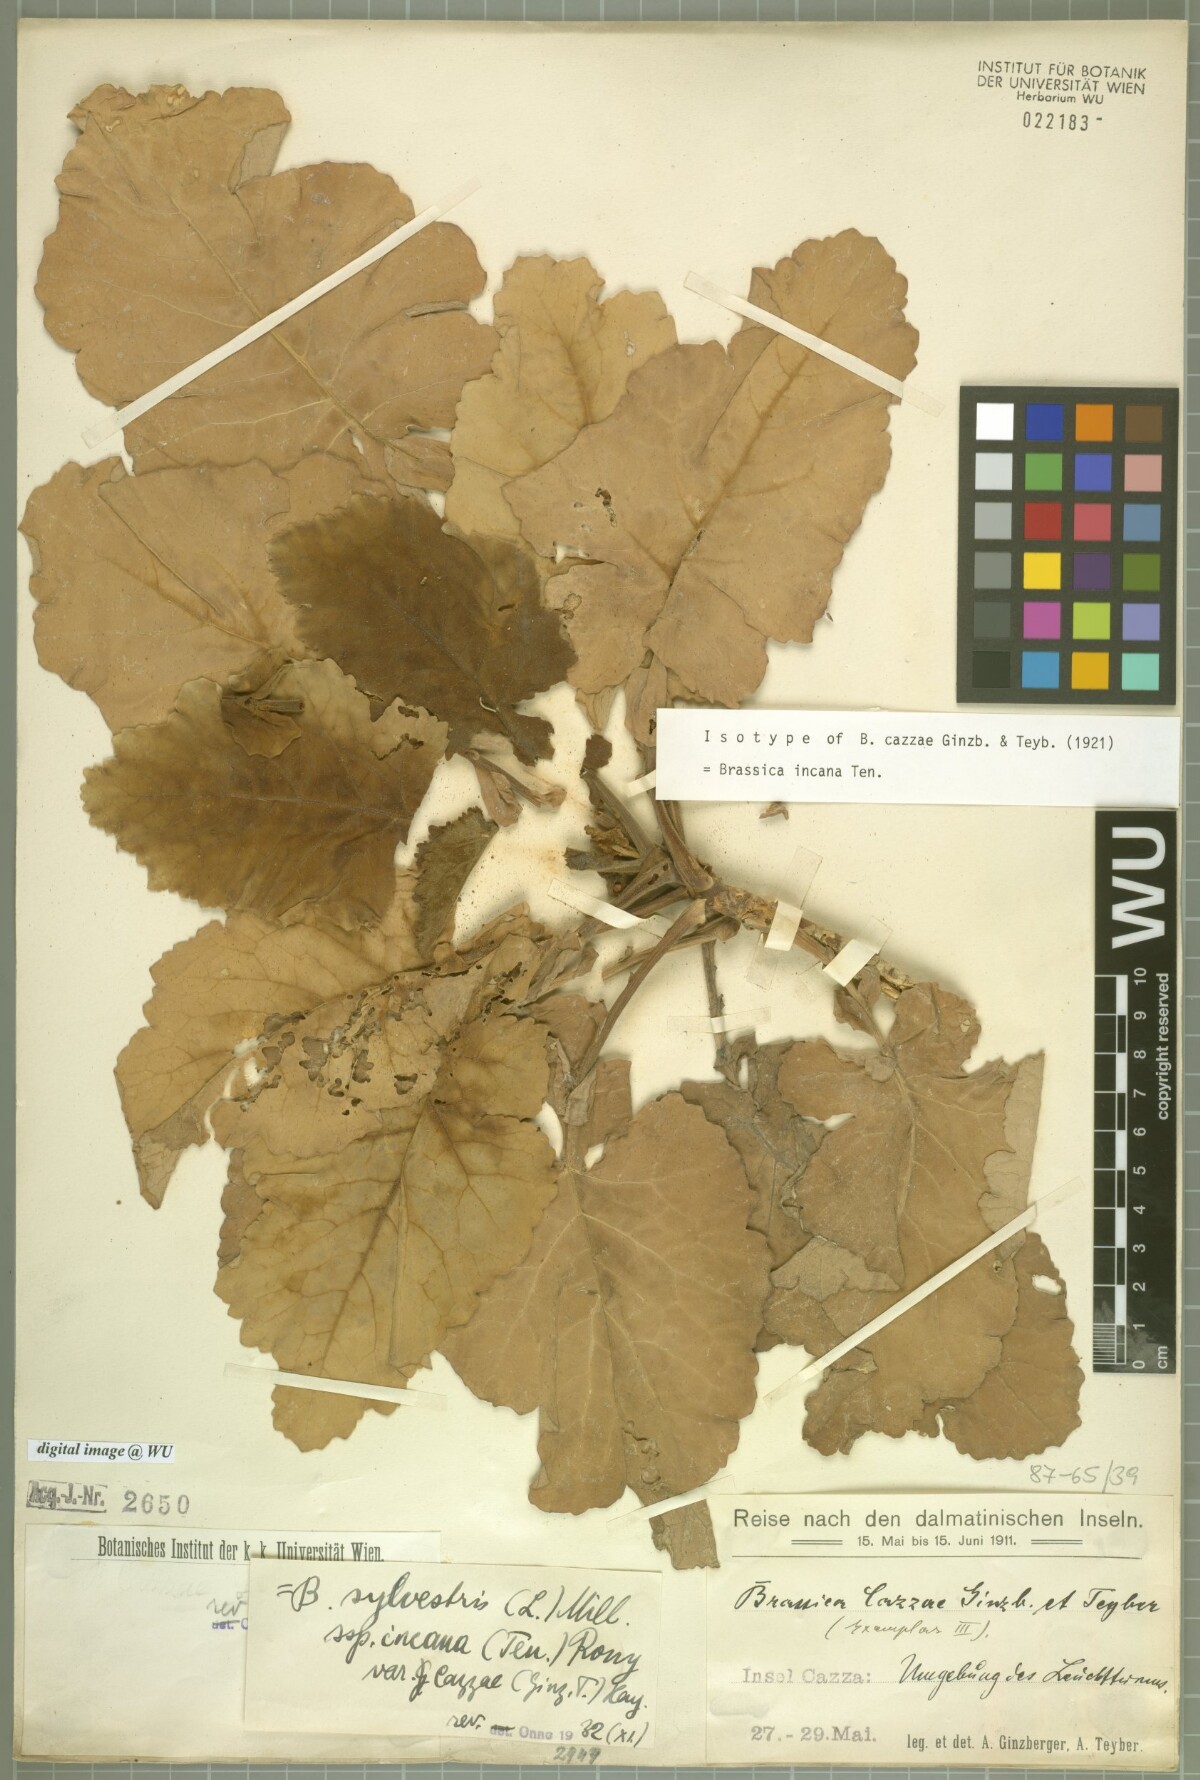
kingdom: Plantae
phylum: Tracheophyta
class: Magnoliopsida
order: Brassicales
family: Brassicaceae
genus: Brassica
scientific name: Brassica incana
